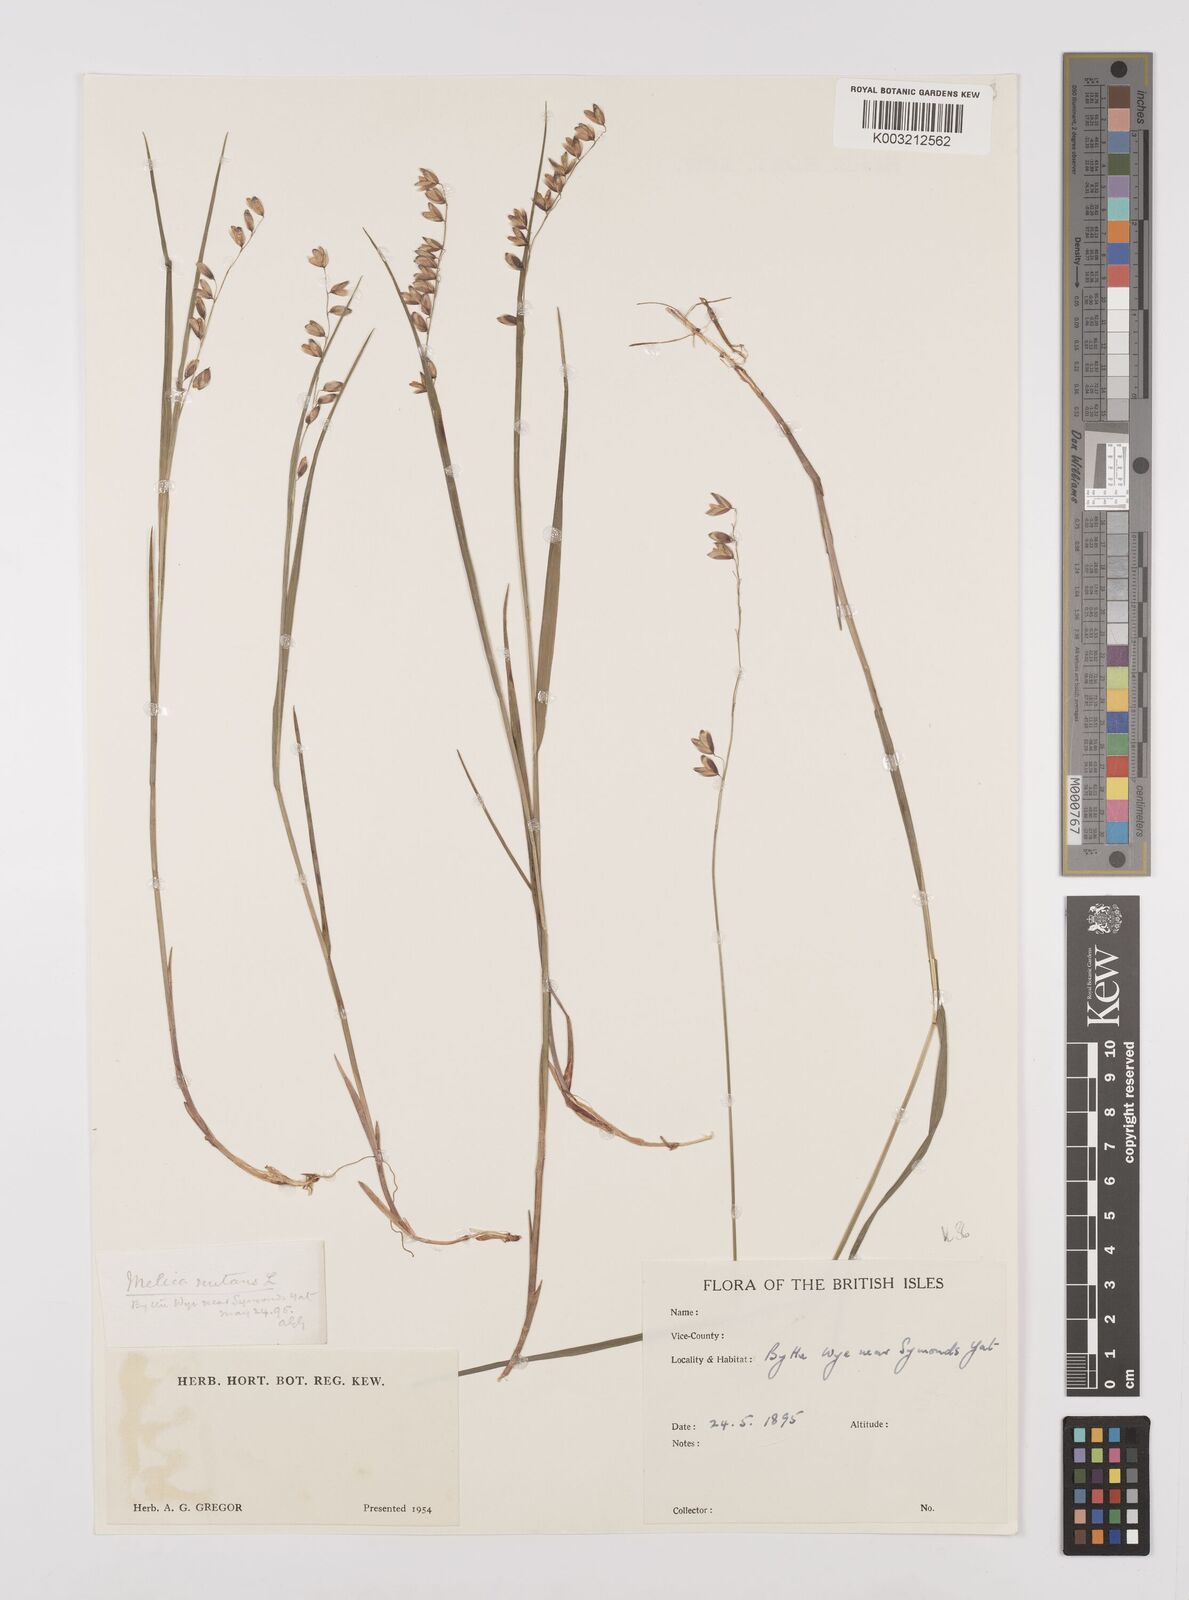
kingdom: Plantae
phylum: Tracheophyta
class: Liliopsida
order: Poales
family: Poaceae
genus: Melica
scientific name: Melica
